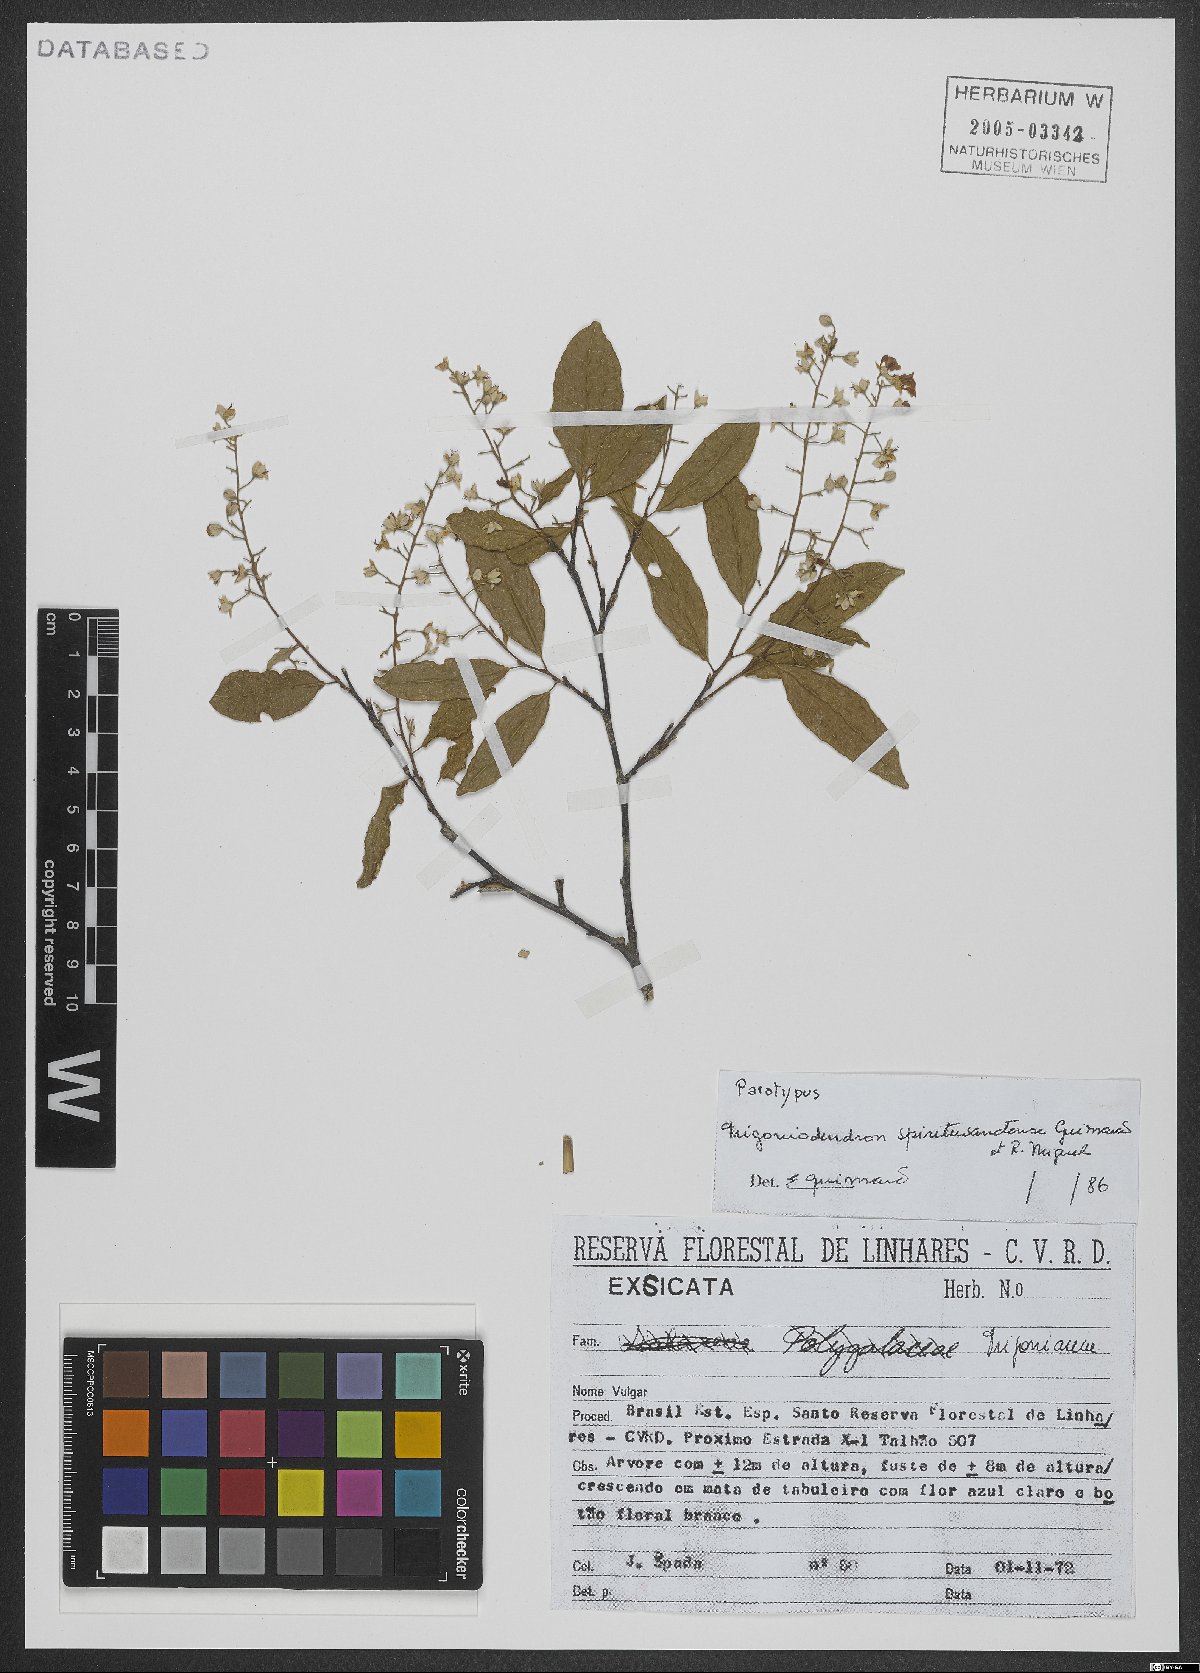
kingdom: Plantae
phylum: Tracheophyta
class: Magnoliopsida
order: Malpighiales
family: Trigoniaceae
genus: Trigoniodendron
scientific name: Trigoniodendron spiritusanctense
